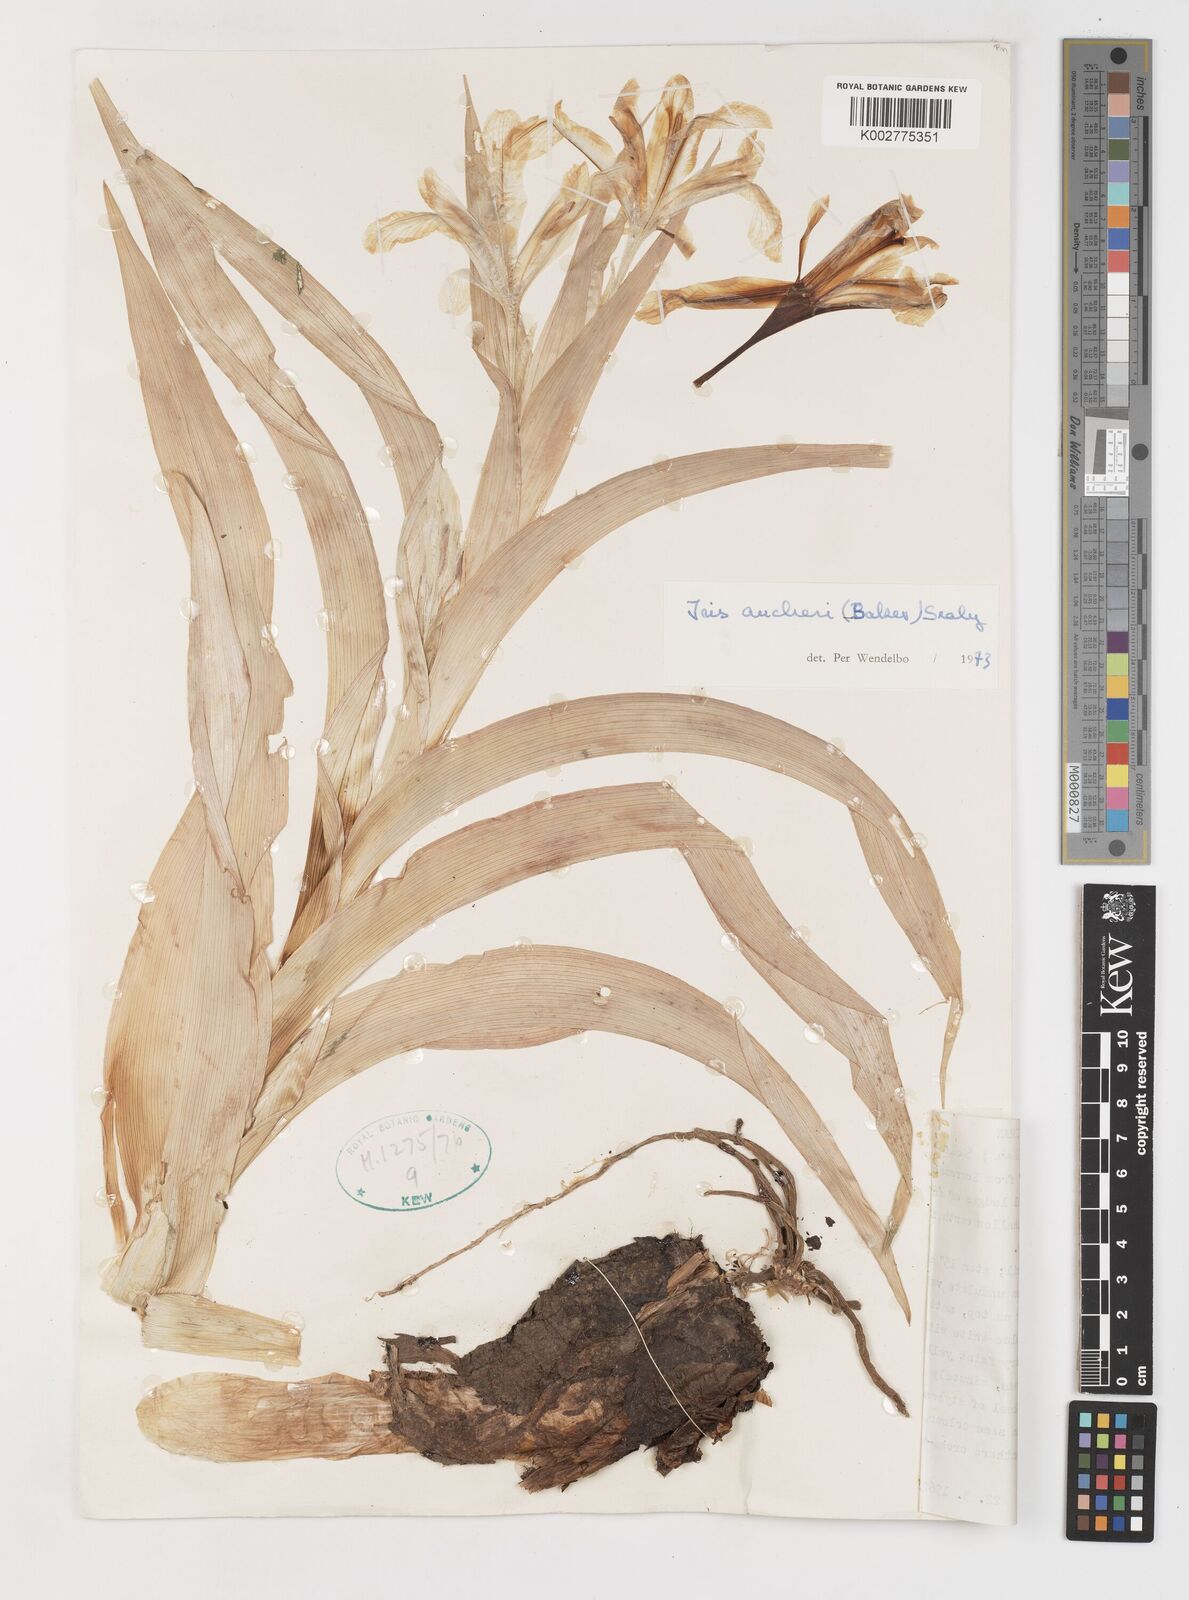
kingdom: Plantae
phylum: Tracheophyta
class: Liliopsida
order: Asparagales
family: Iridaceae
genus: Iris
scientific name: Iris aucheri
